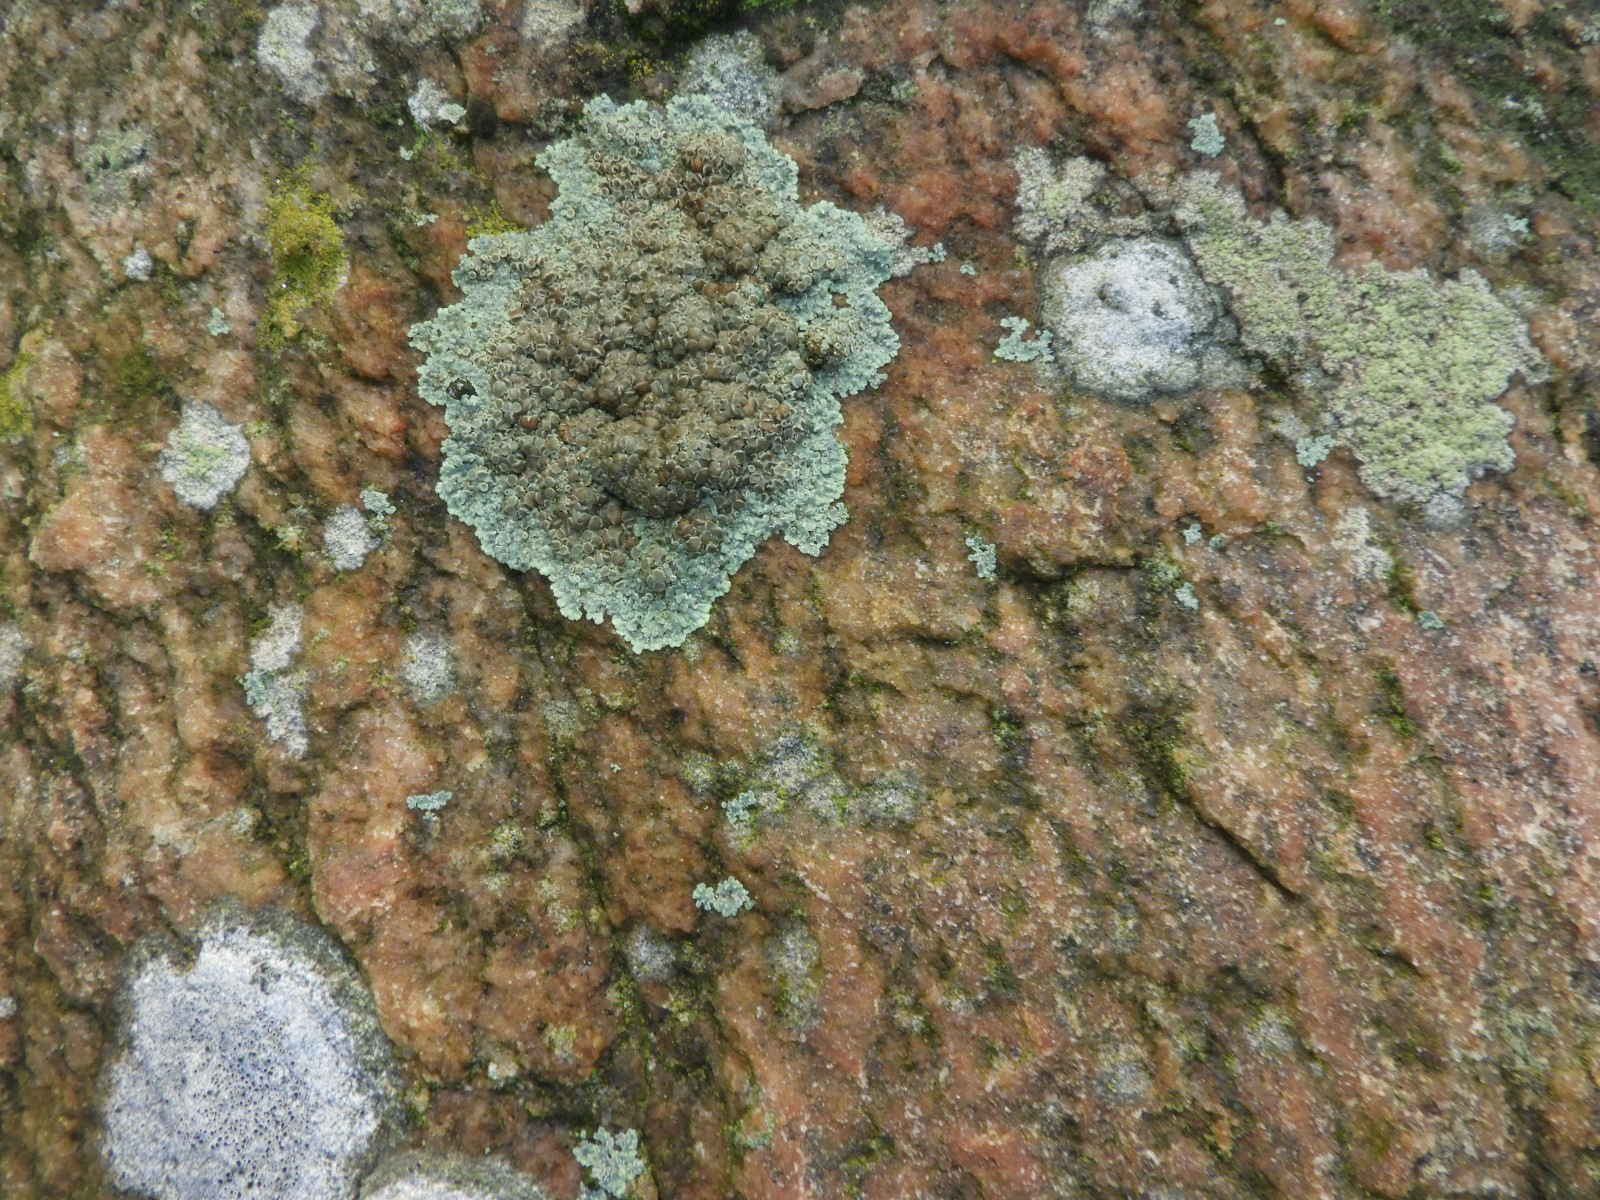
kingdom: Fungi
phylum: Ascomycota
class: Lecanoromycetes
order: Lecanorales
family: Lecanoraceae
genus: Protoparmeliopsis
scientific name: Protoparmeliopsis muralis
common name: randfliget kantskivelav
